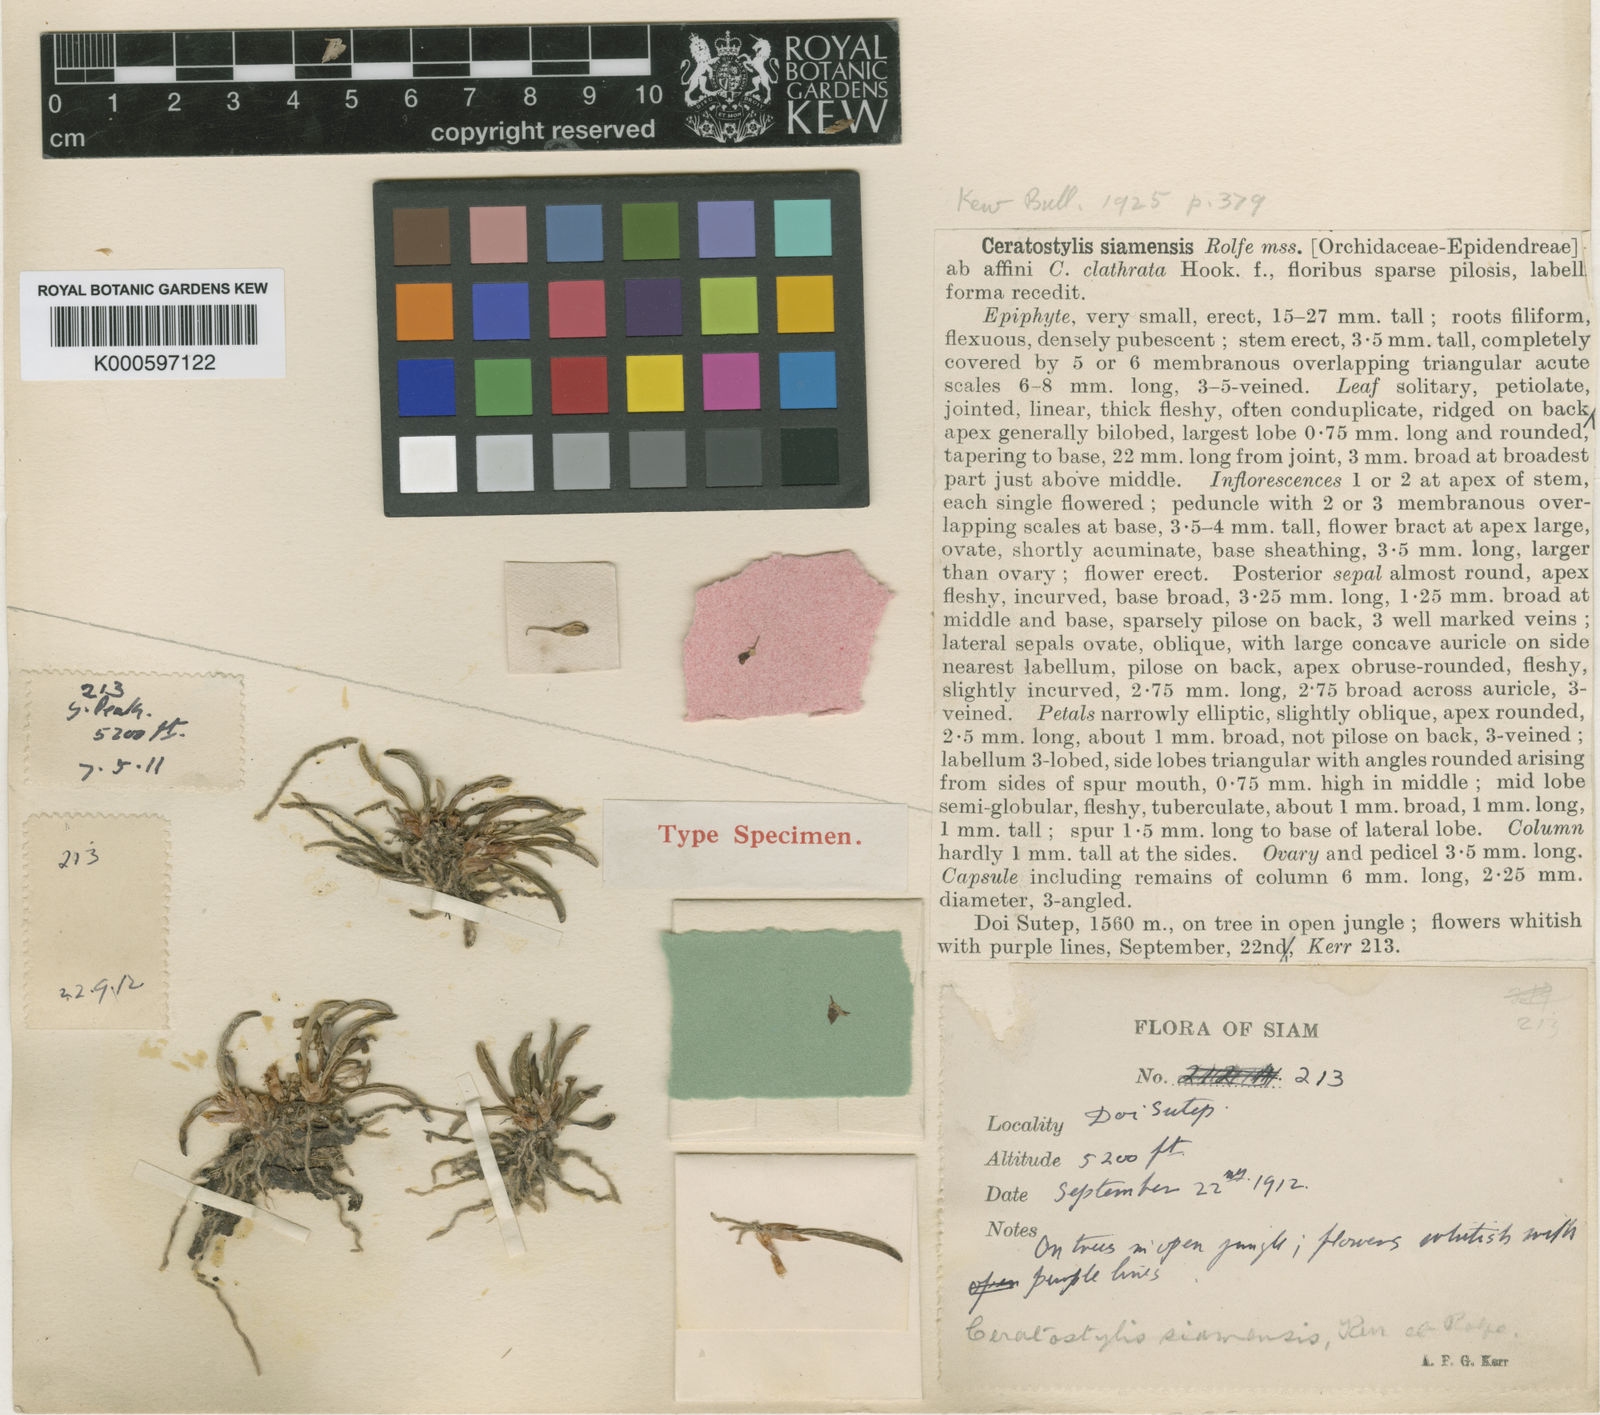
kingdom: Plantae
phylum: Tracheophyta
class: Liliopsida
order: Asparagales
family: Orchidaceae
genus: Ceratostylis
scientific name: Ceratostylis siamensis
